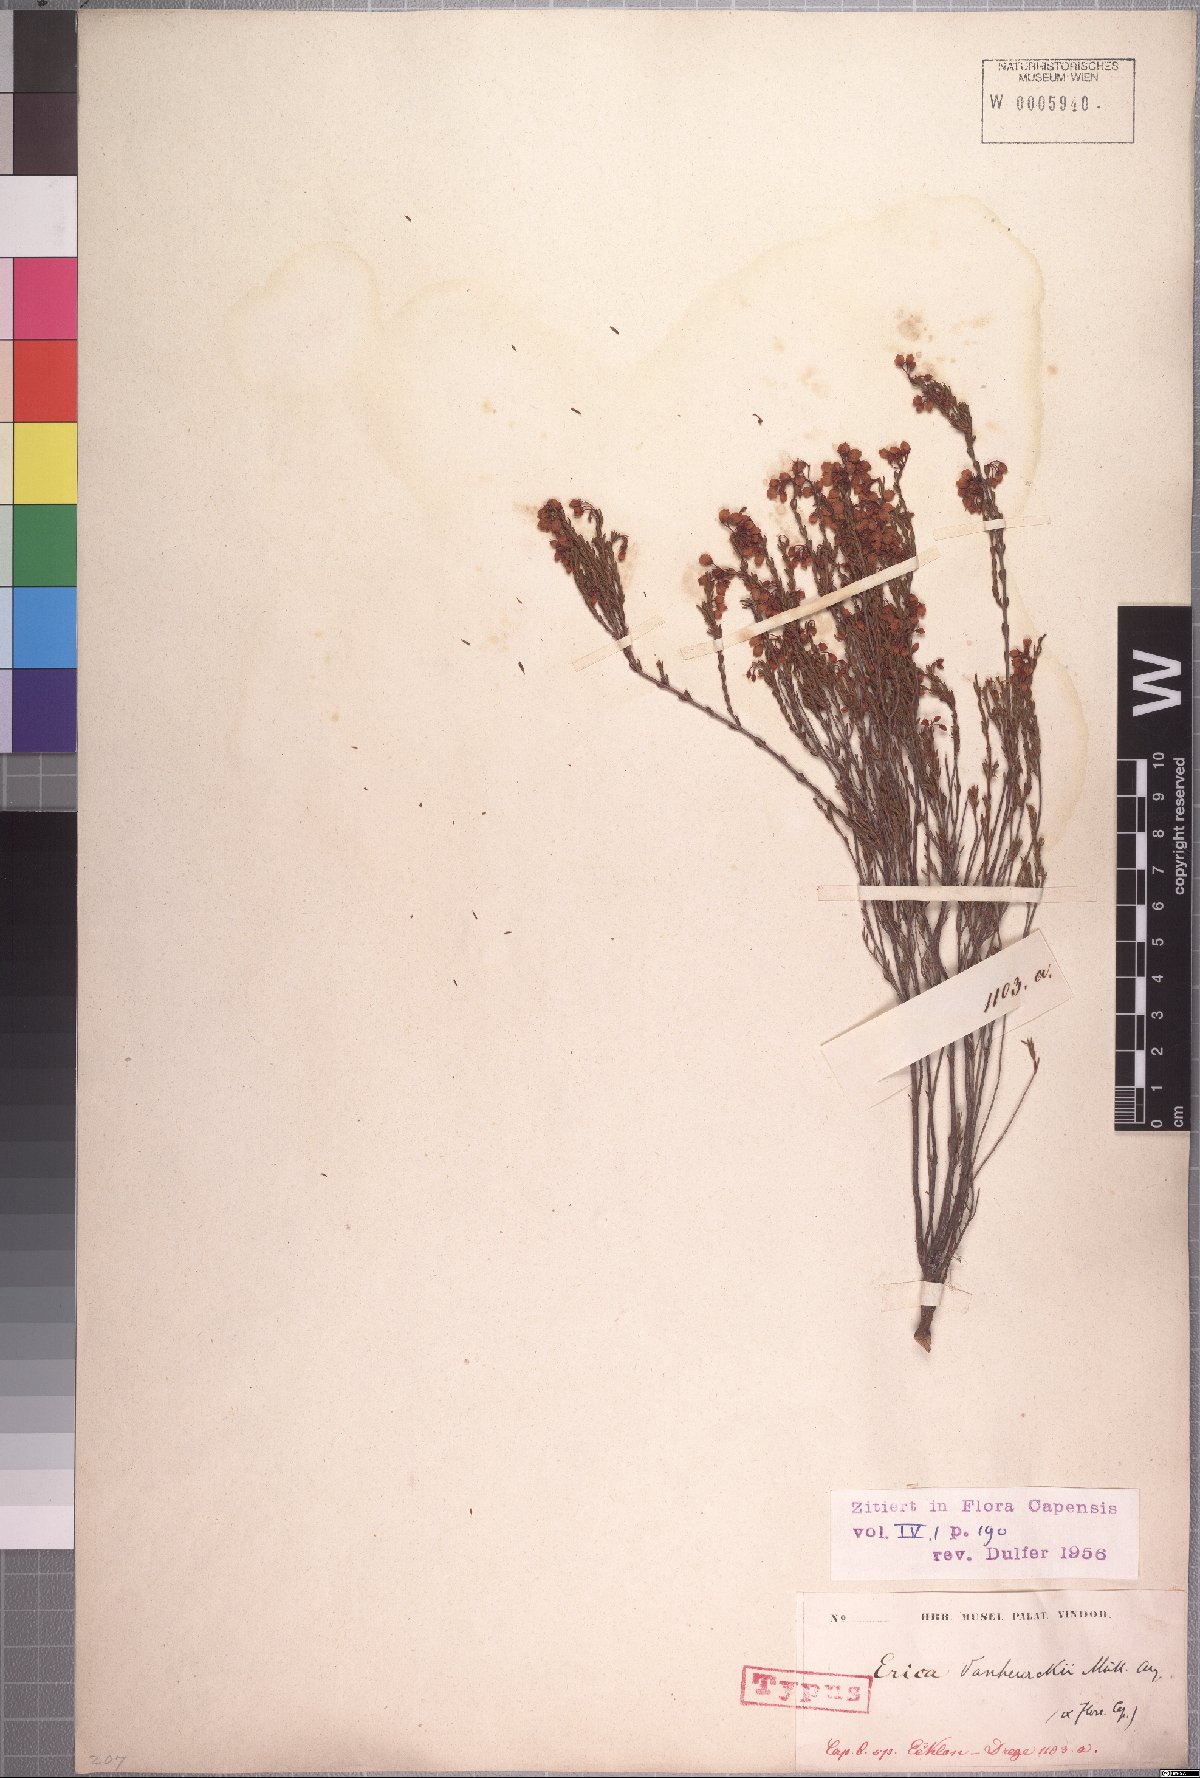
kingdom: Plantae
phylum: Tracheophyta
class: Magnoliopsida
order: Ericales
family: Ericaceae
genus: Erica
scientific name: Erica vanheurckii
